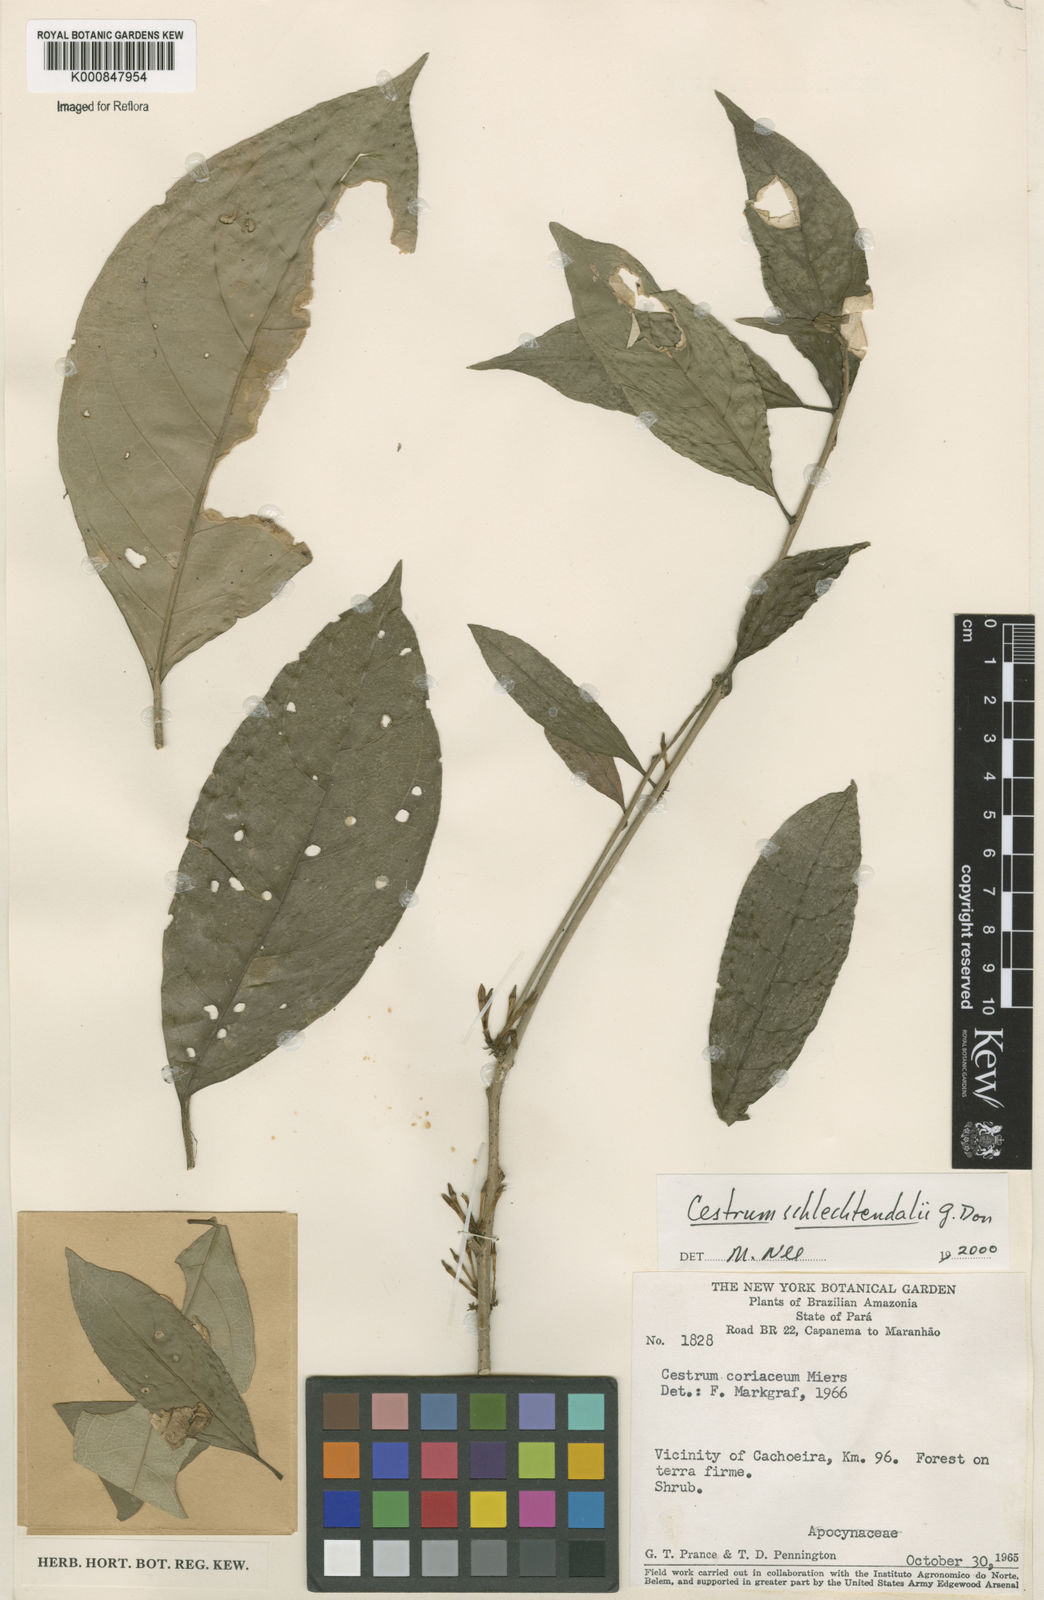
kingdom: Plantae
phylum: Tracheophyta
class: Magnoliopsida
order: Solanales
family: Solanaceae
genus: Cestrum
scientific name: Cestrum schlechtendalii
